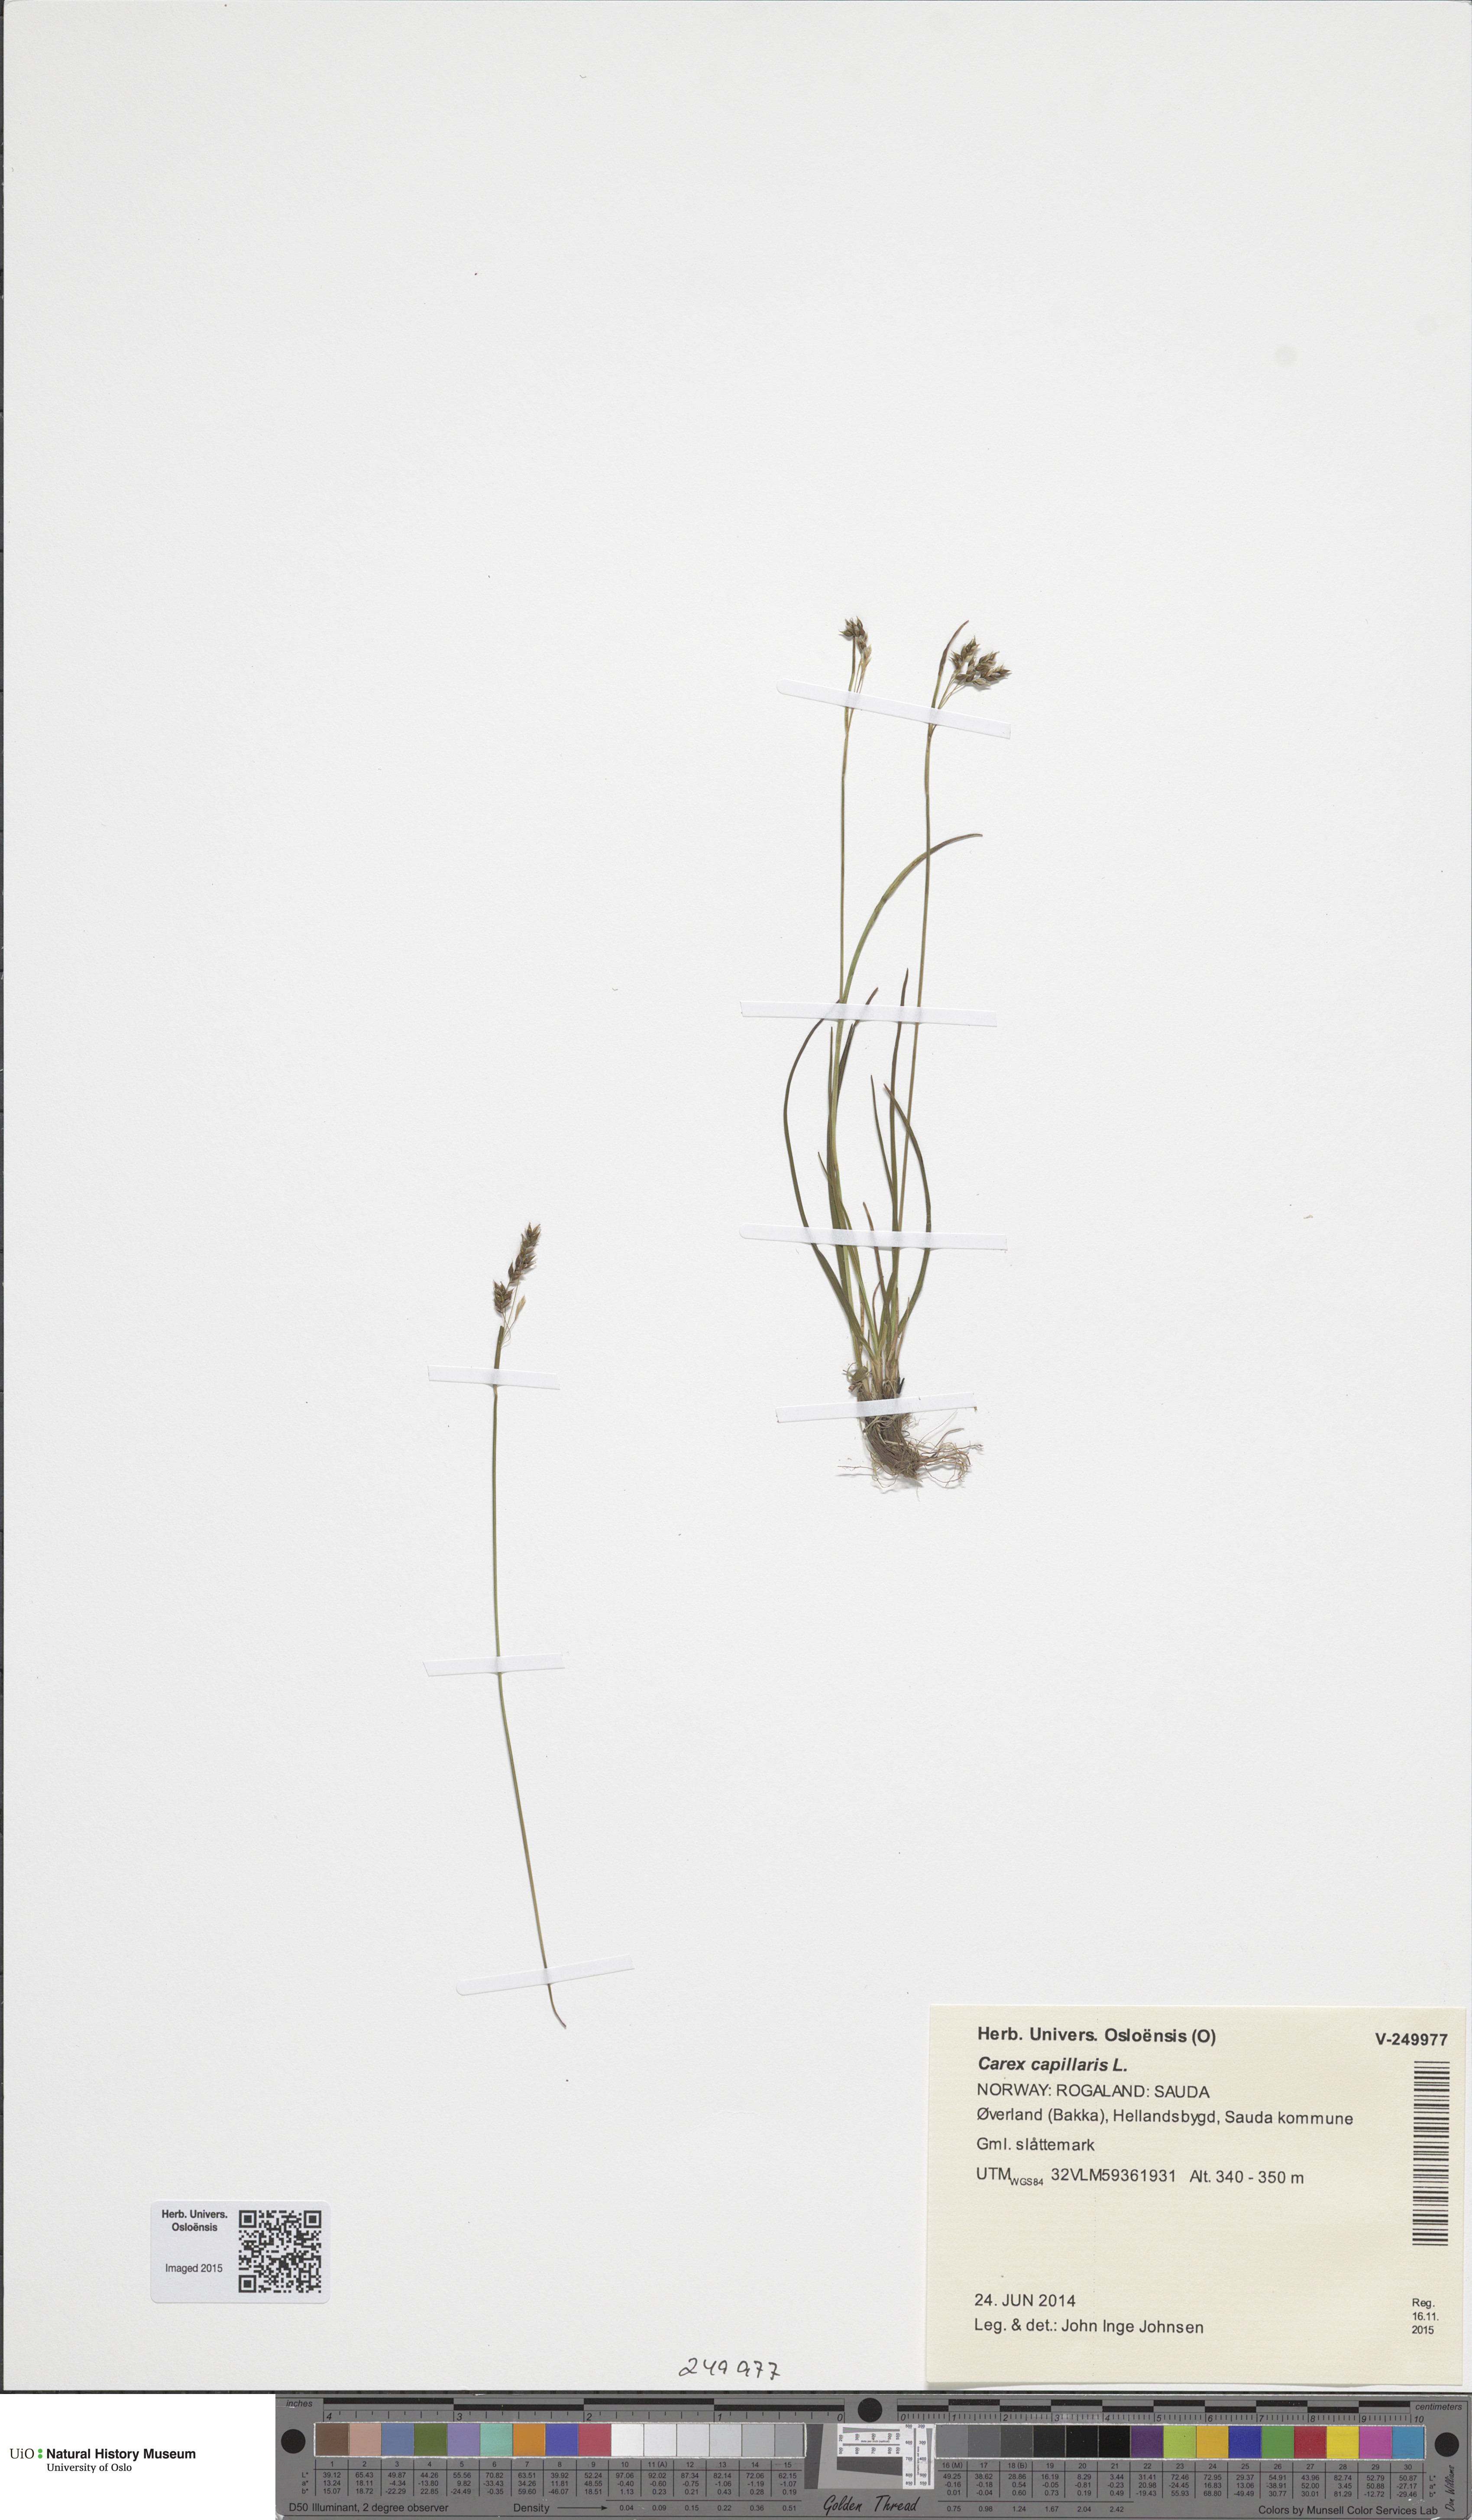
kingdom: Plantae
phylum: Tracheophyta
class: Liliopsida
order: Poales
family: Cyperaceae
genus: Carex
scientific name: Carex capillaris
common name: Hair sedge
